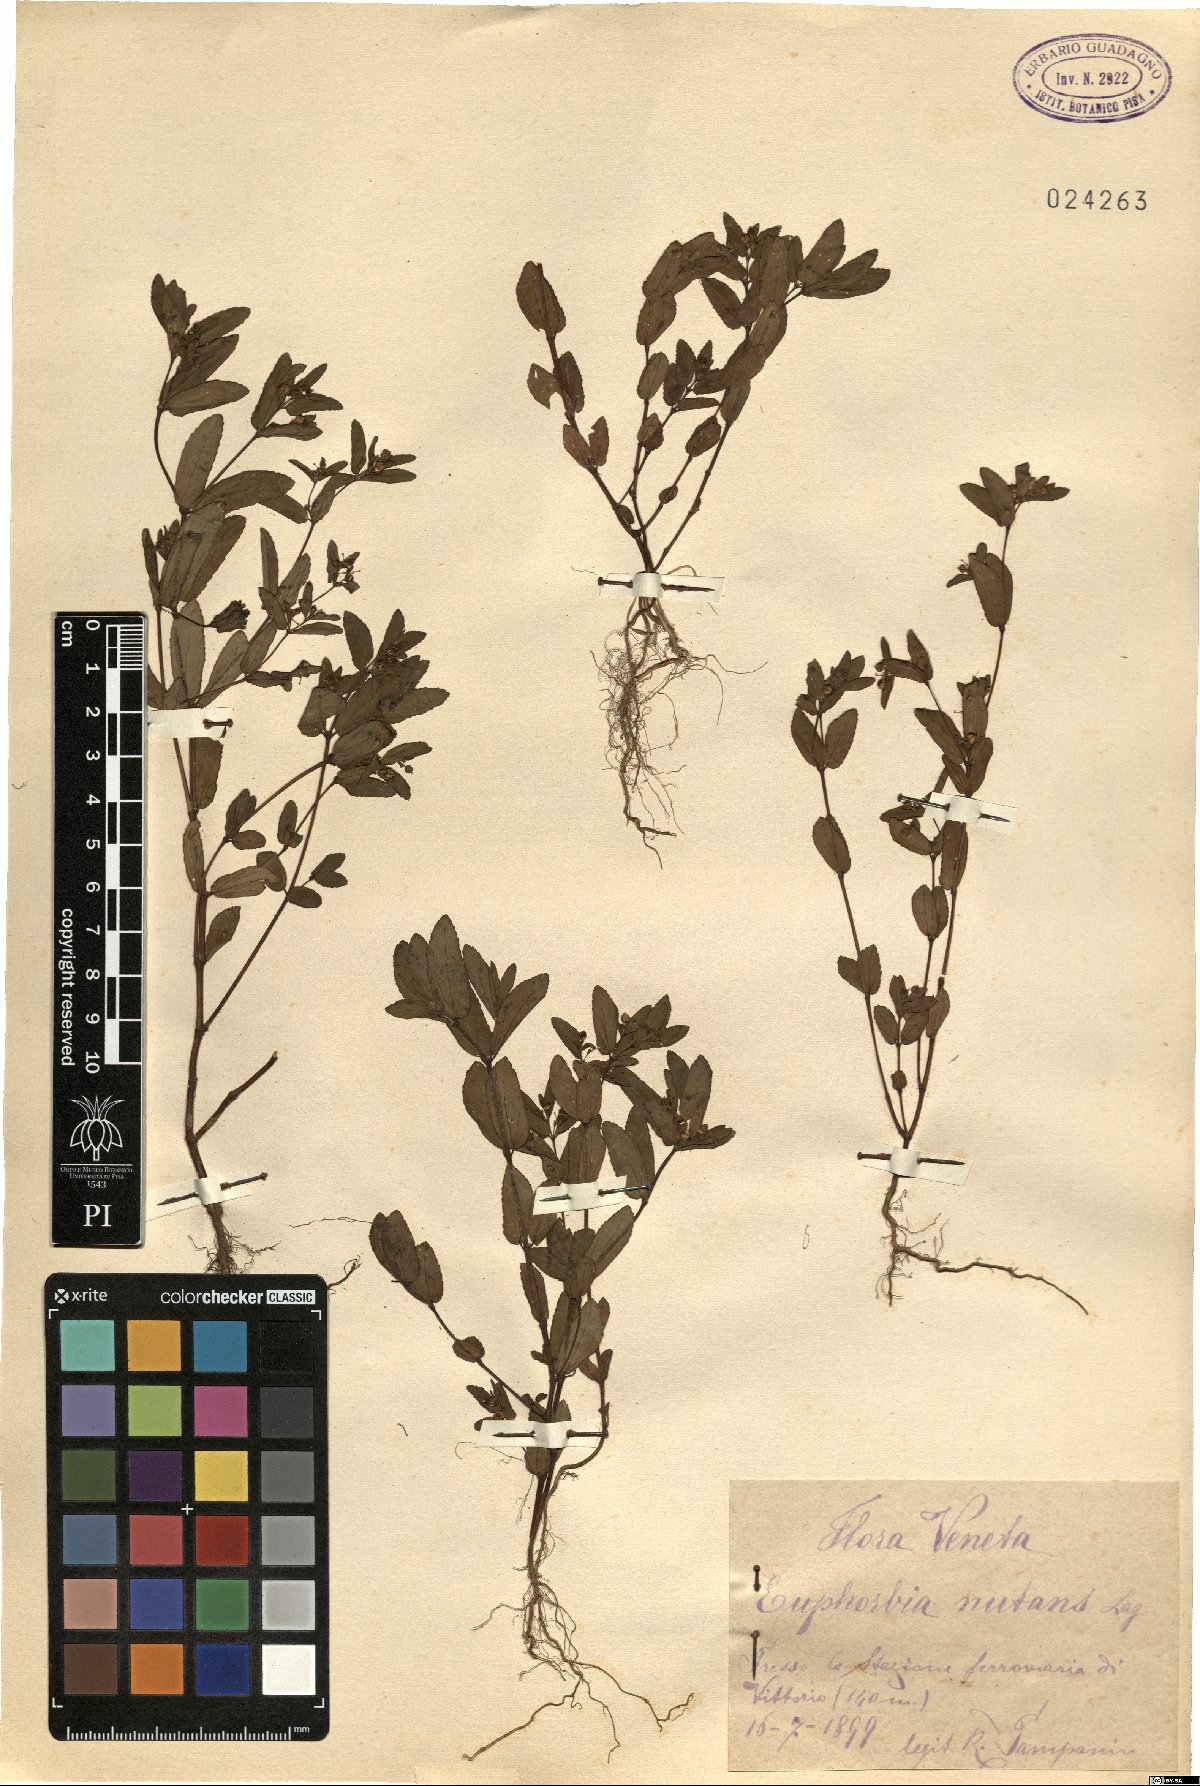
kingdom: Plantae
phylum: Tracheophyta
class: Magnoliopsida
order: Malpighiales
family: Euphorbiaceae
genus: Euphorbia
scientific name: Euphorbia nutans
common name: Eyebane
